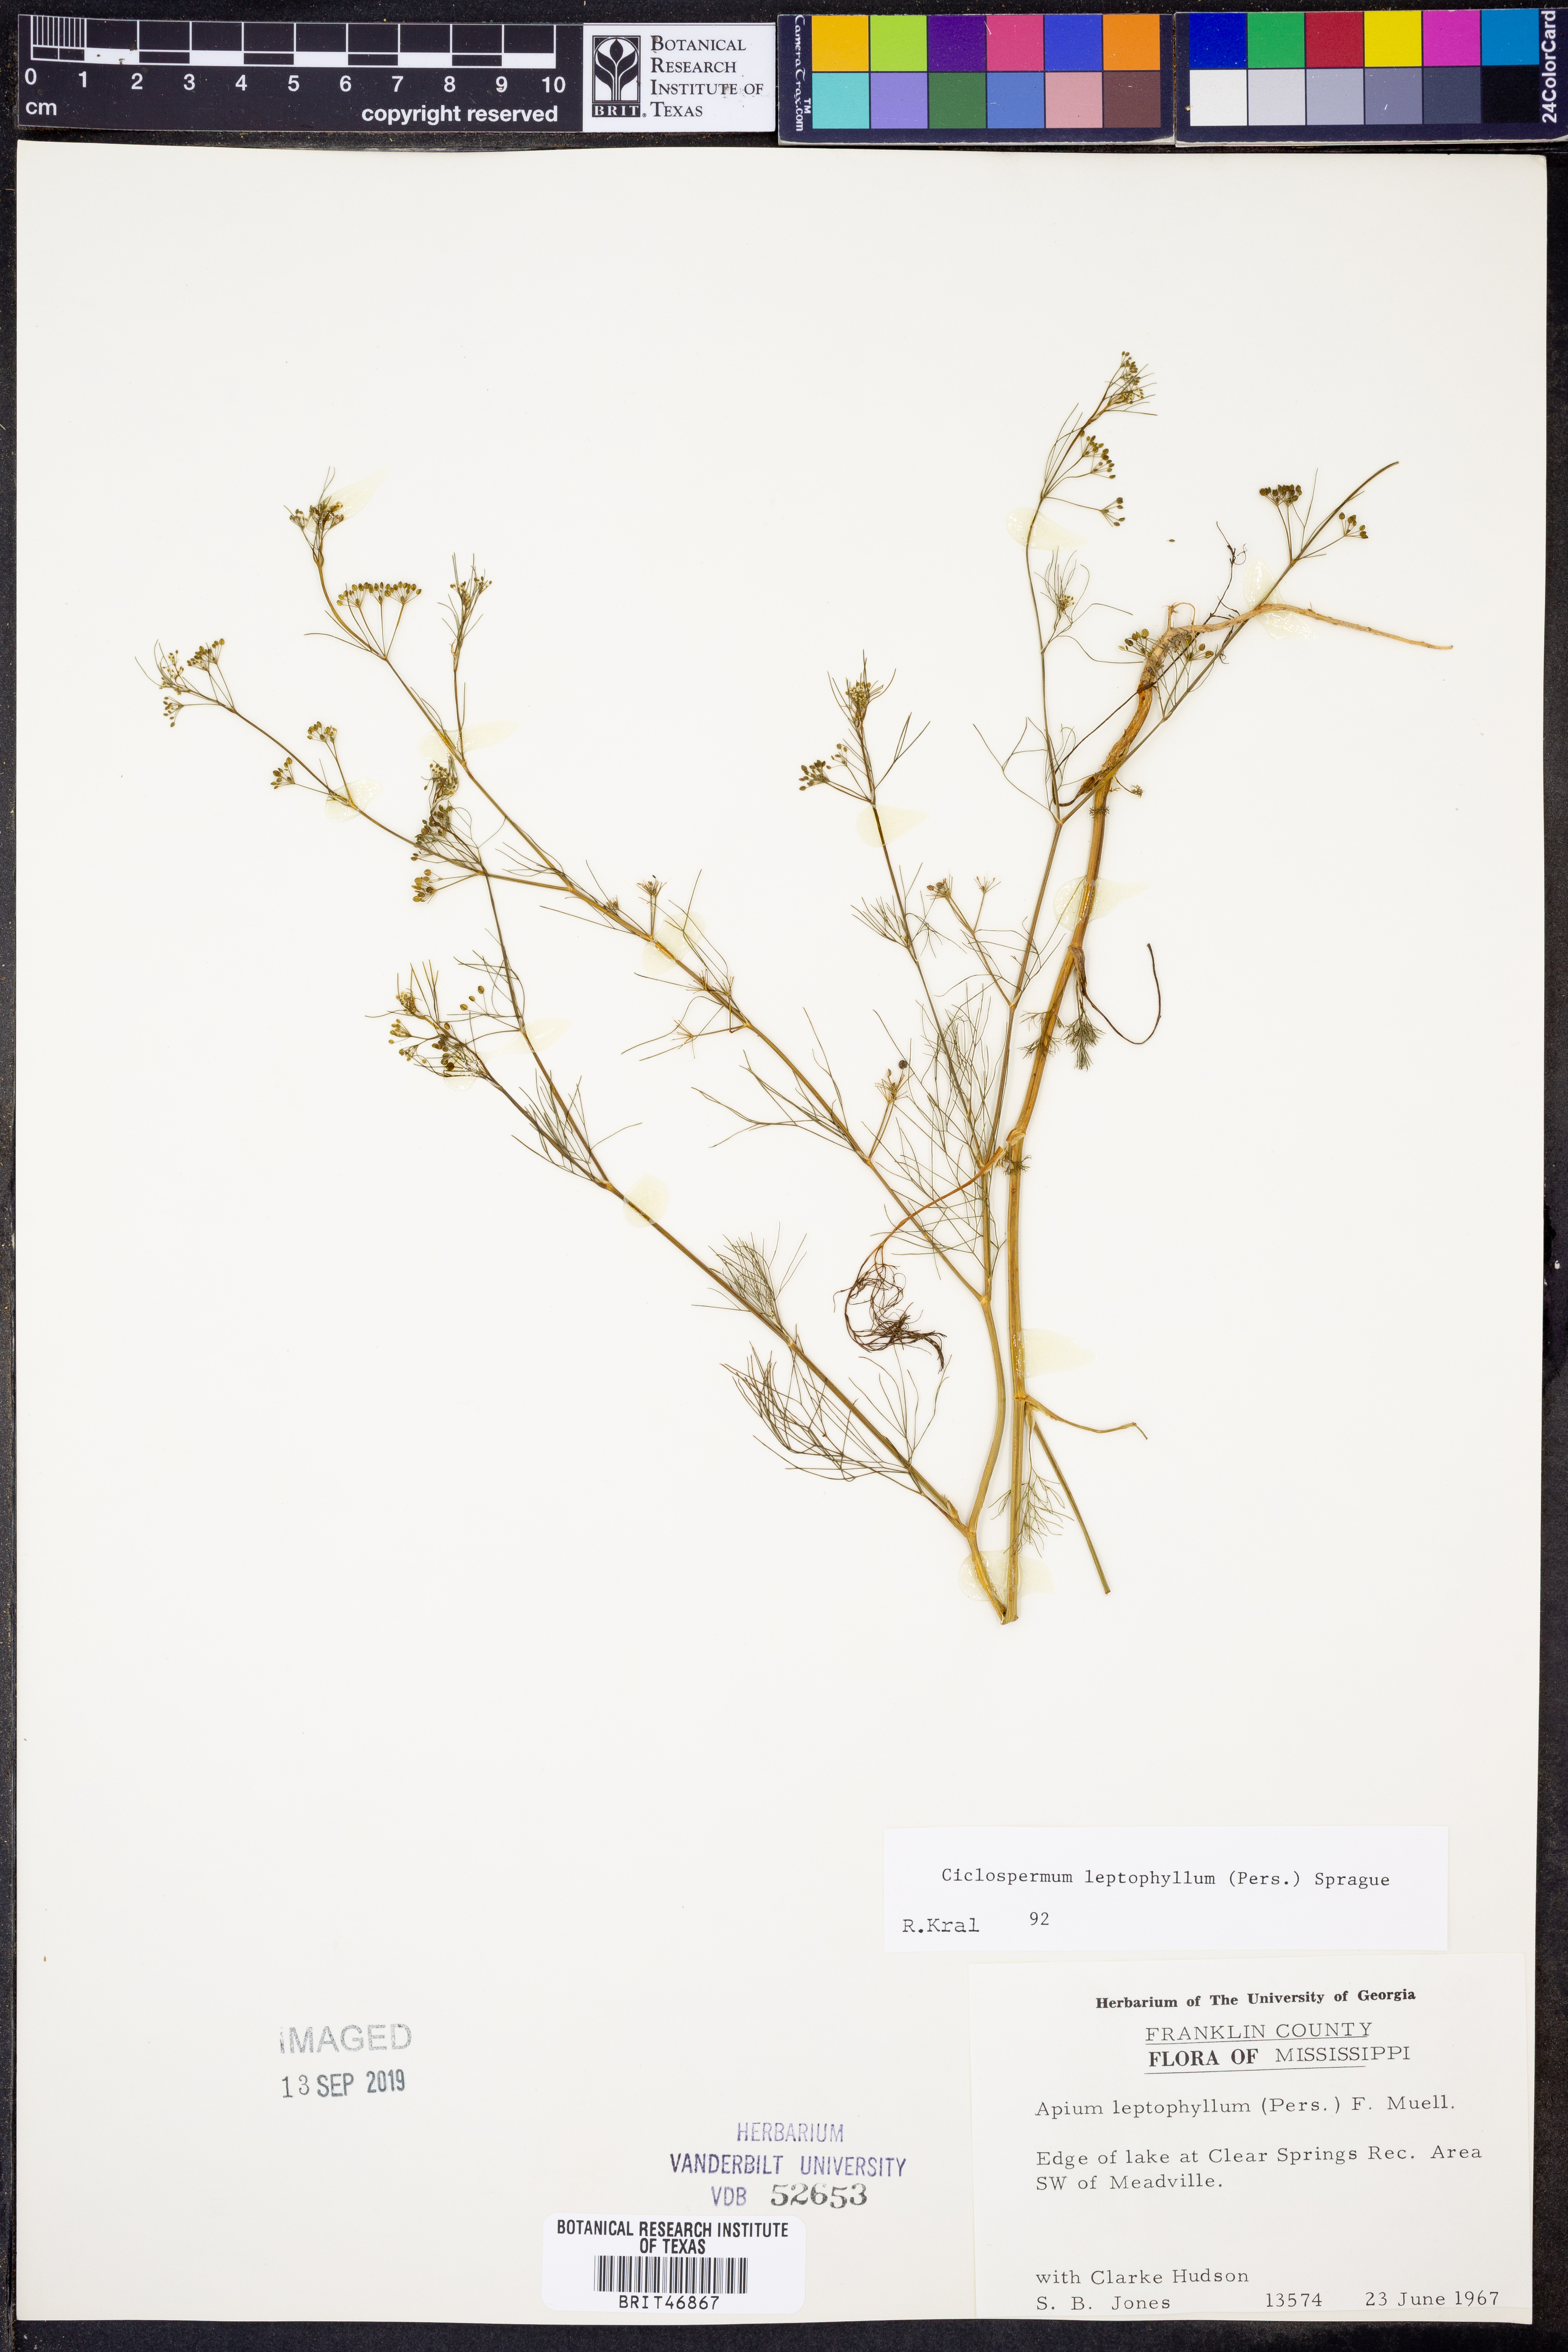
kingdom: Plantae
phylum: Tracheophyta
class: Magnoliopsida
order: Apiales
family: Apiaceae
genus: Cyclospermum
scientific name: Cyclospermum leptophyllum
